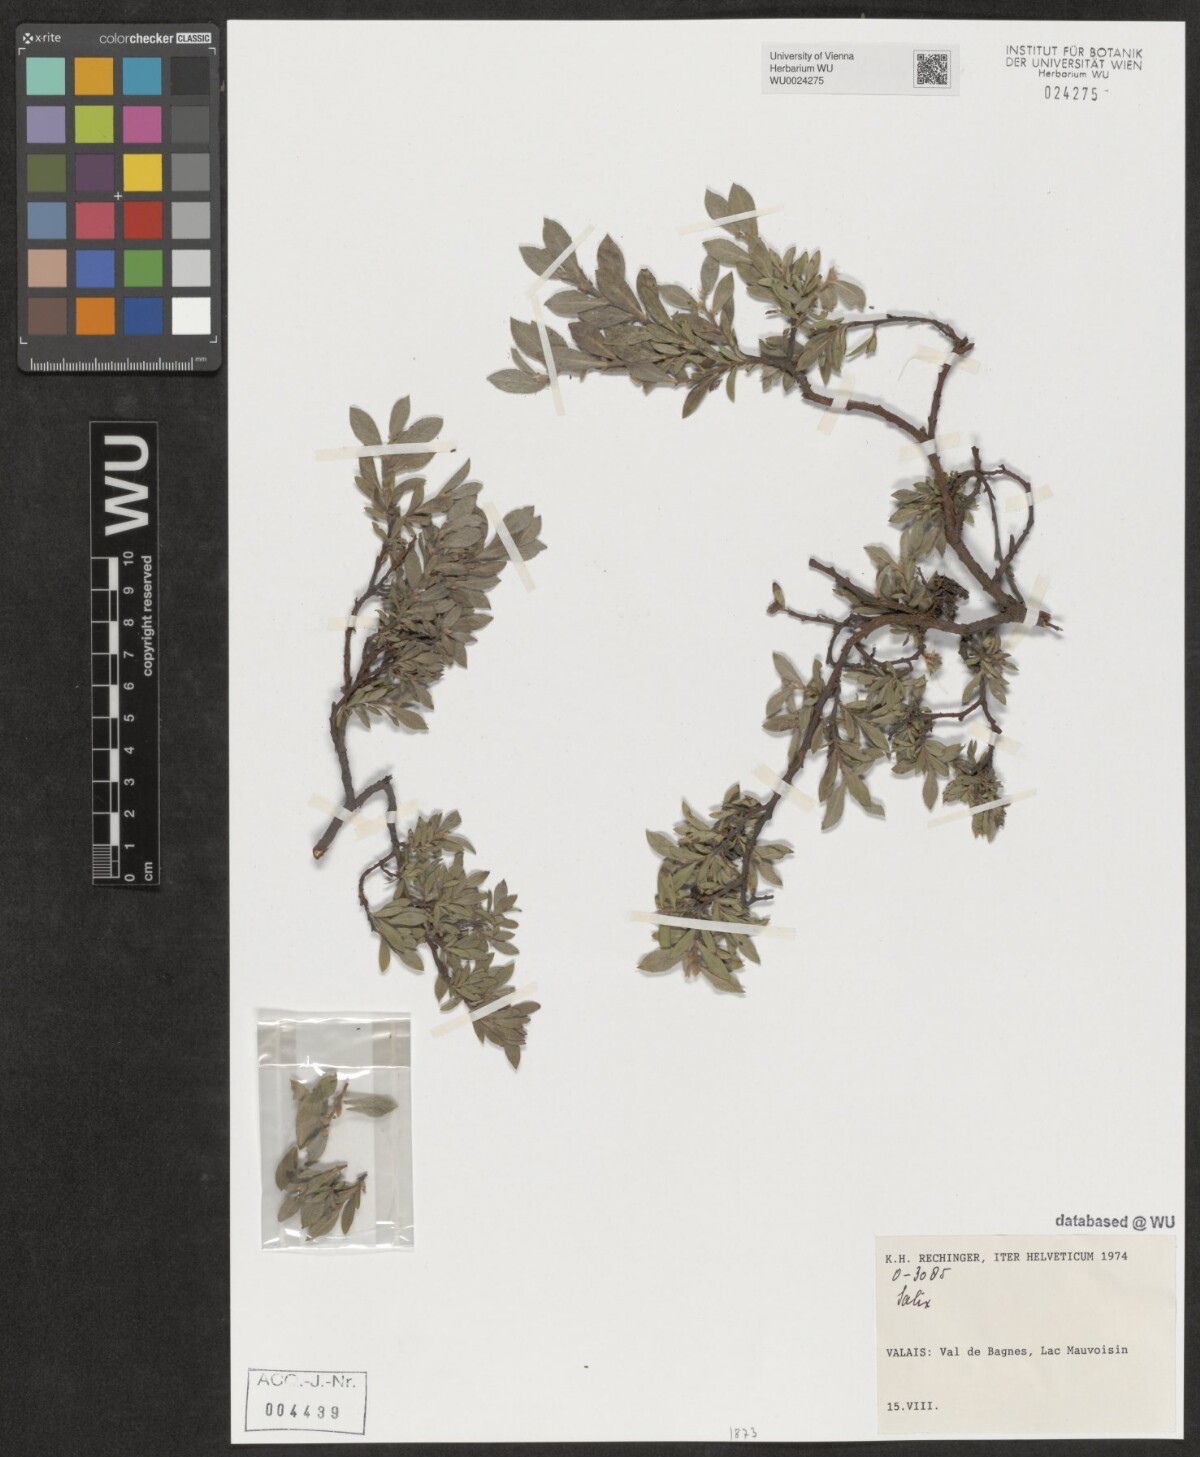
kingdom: Plantae
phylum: Tracheophyta
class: Magnoliopsida
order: Malpighiales
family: Salicaceae
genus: Salix
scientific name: Salix
